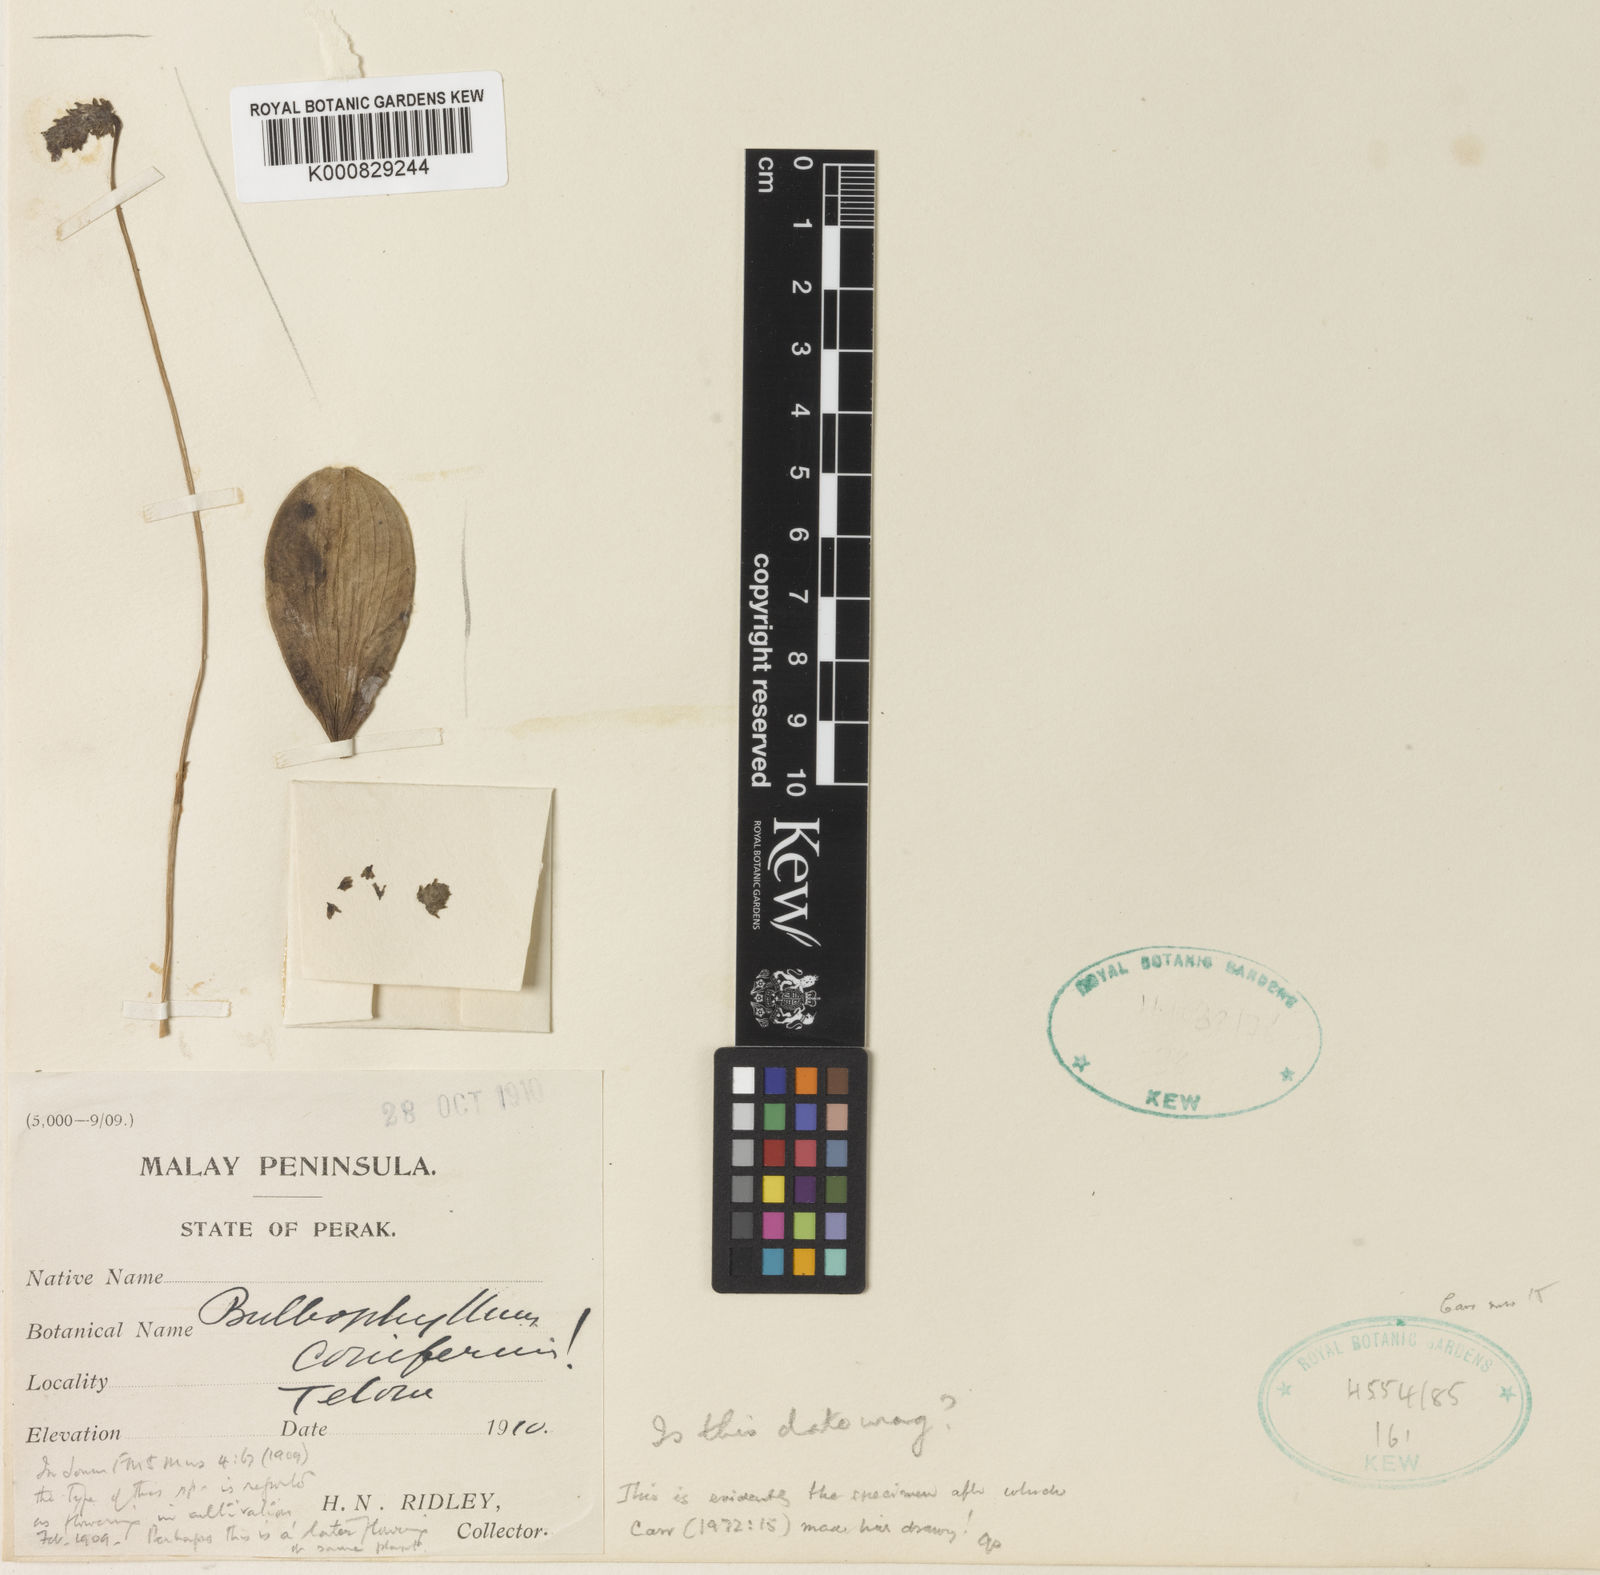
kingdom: Plantae
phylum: Tracheophyta
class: Liliopsida
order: Asparagales
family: Orchidaceae
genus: Bulbophyllum
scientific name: Bulbophyllum coniferum
